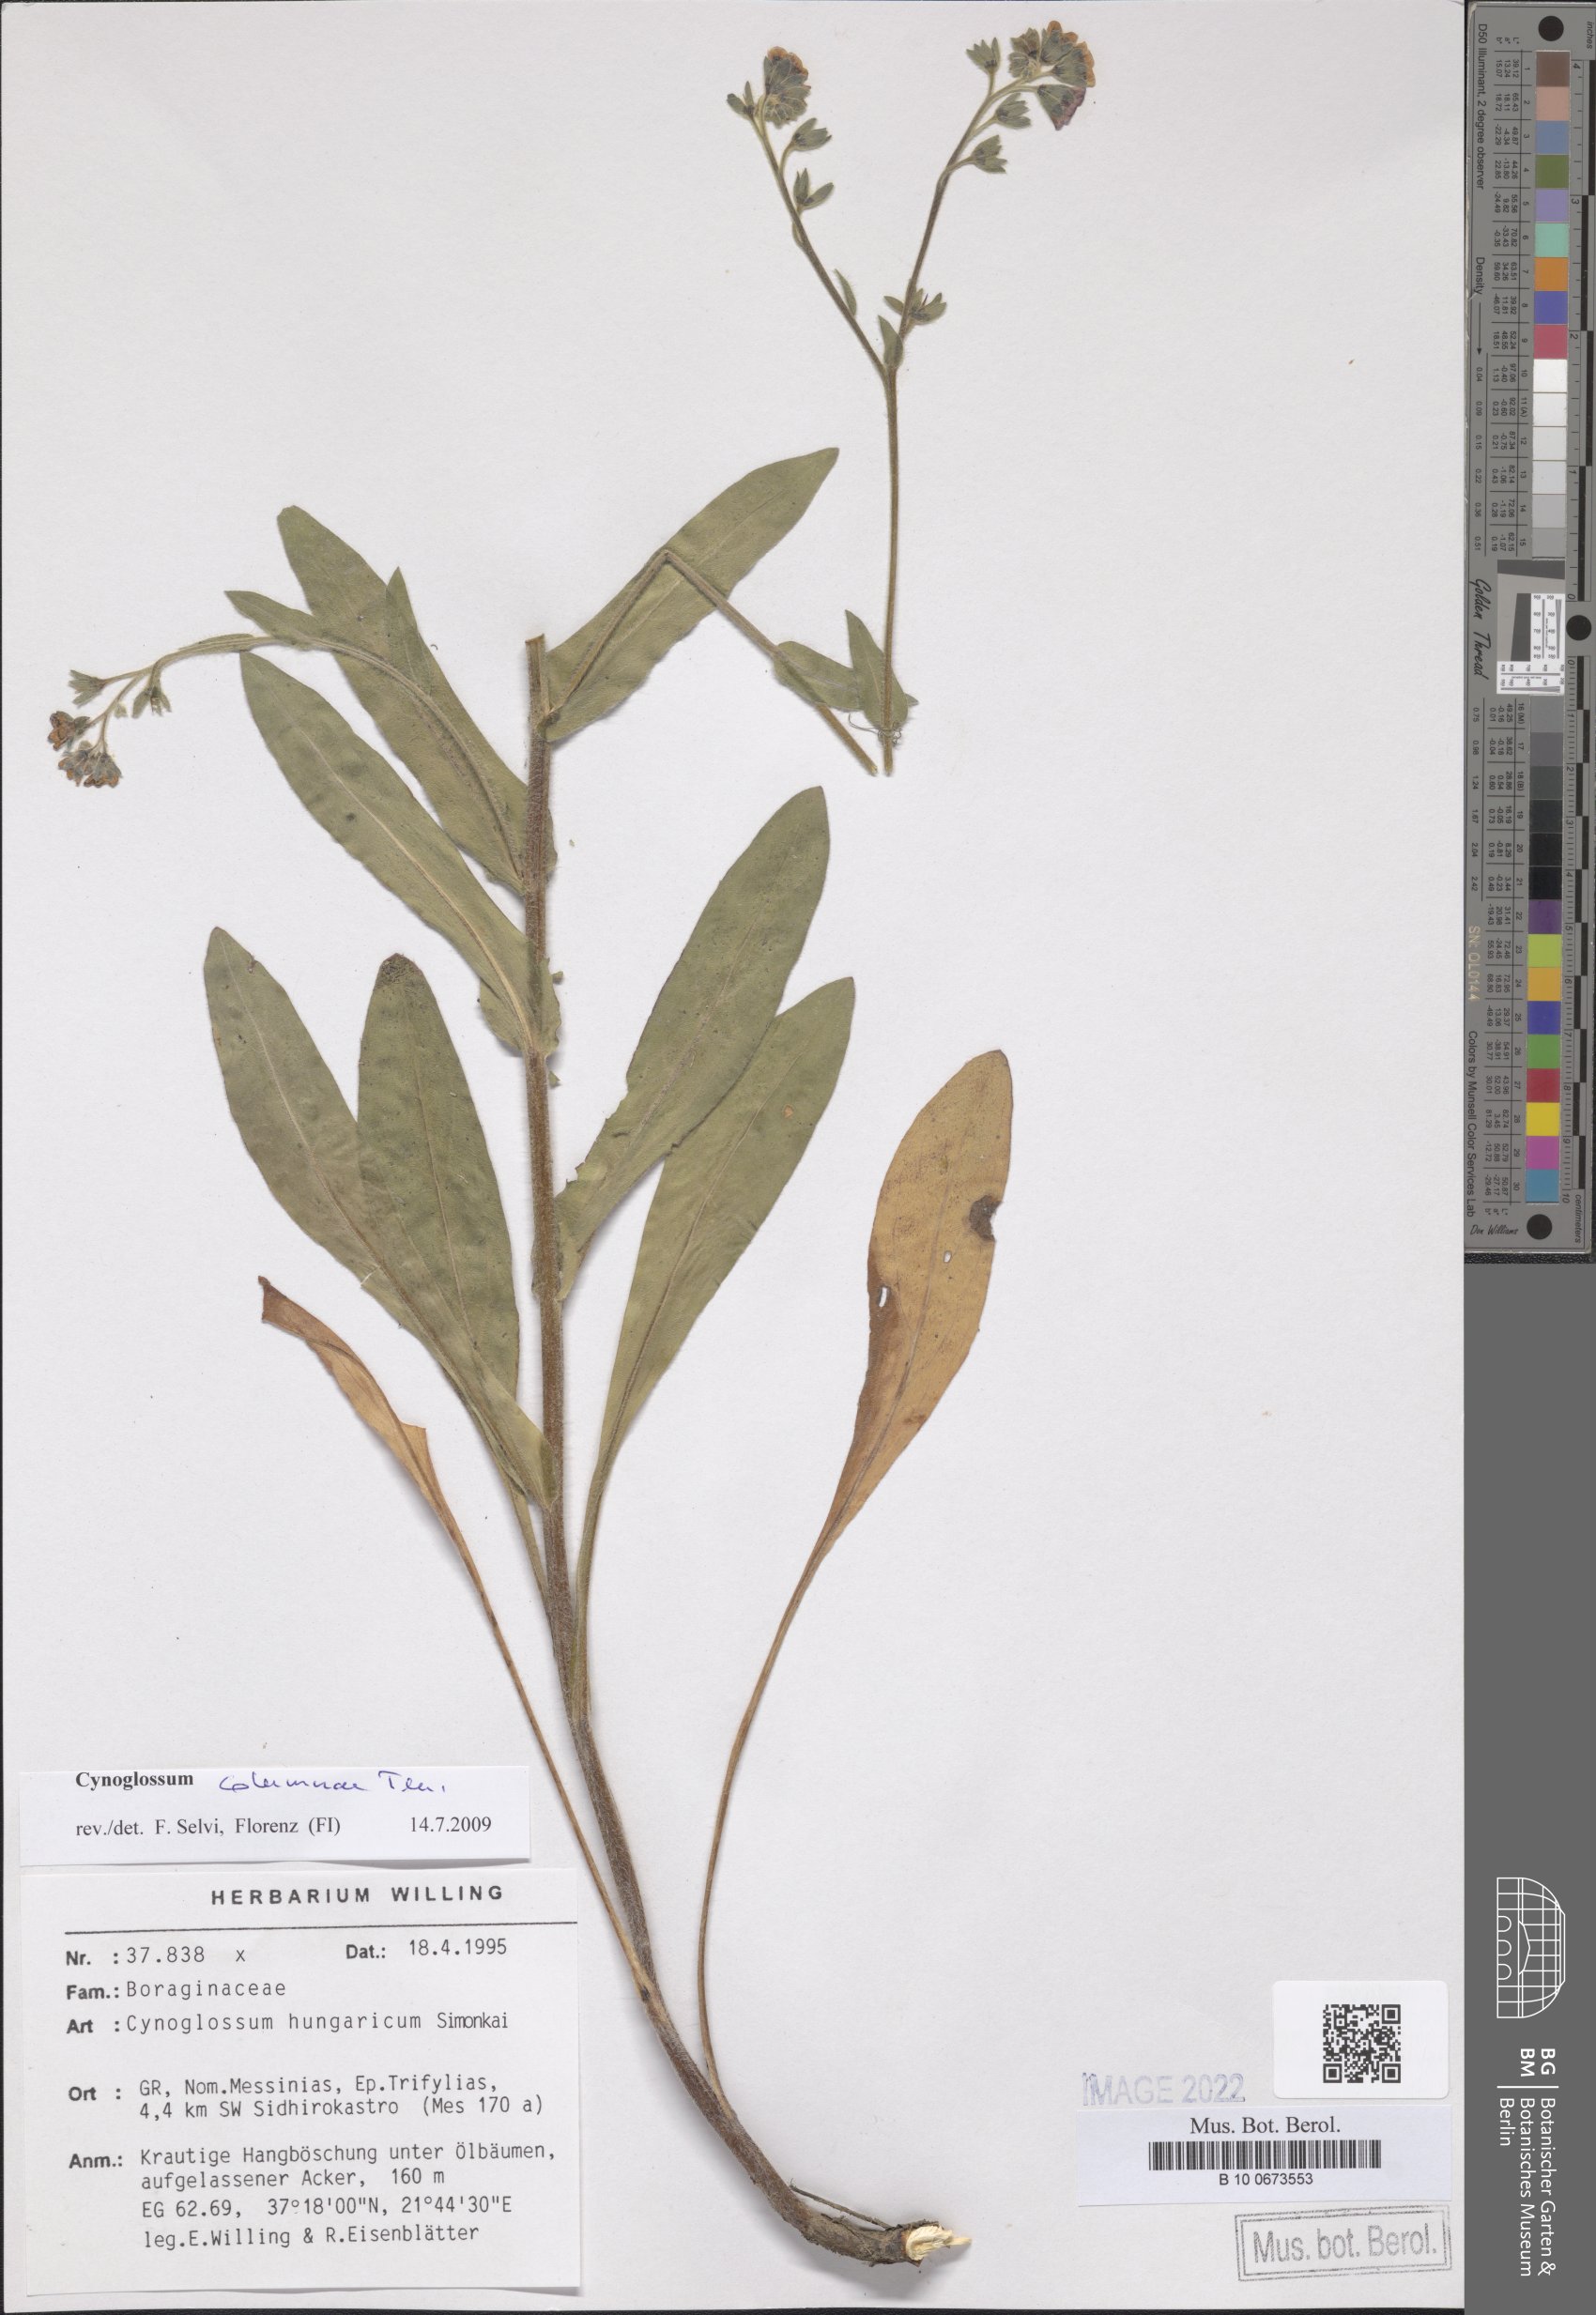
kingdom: Plantae
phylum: Tracheophyta
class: Magnoliopsida
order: Boraginales
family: Boraginaceae
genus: Rindera
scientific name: Rindera columnae
